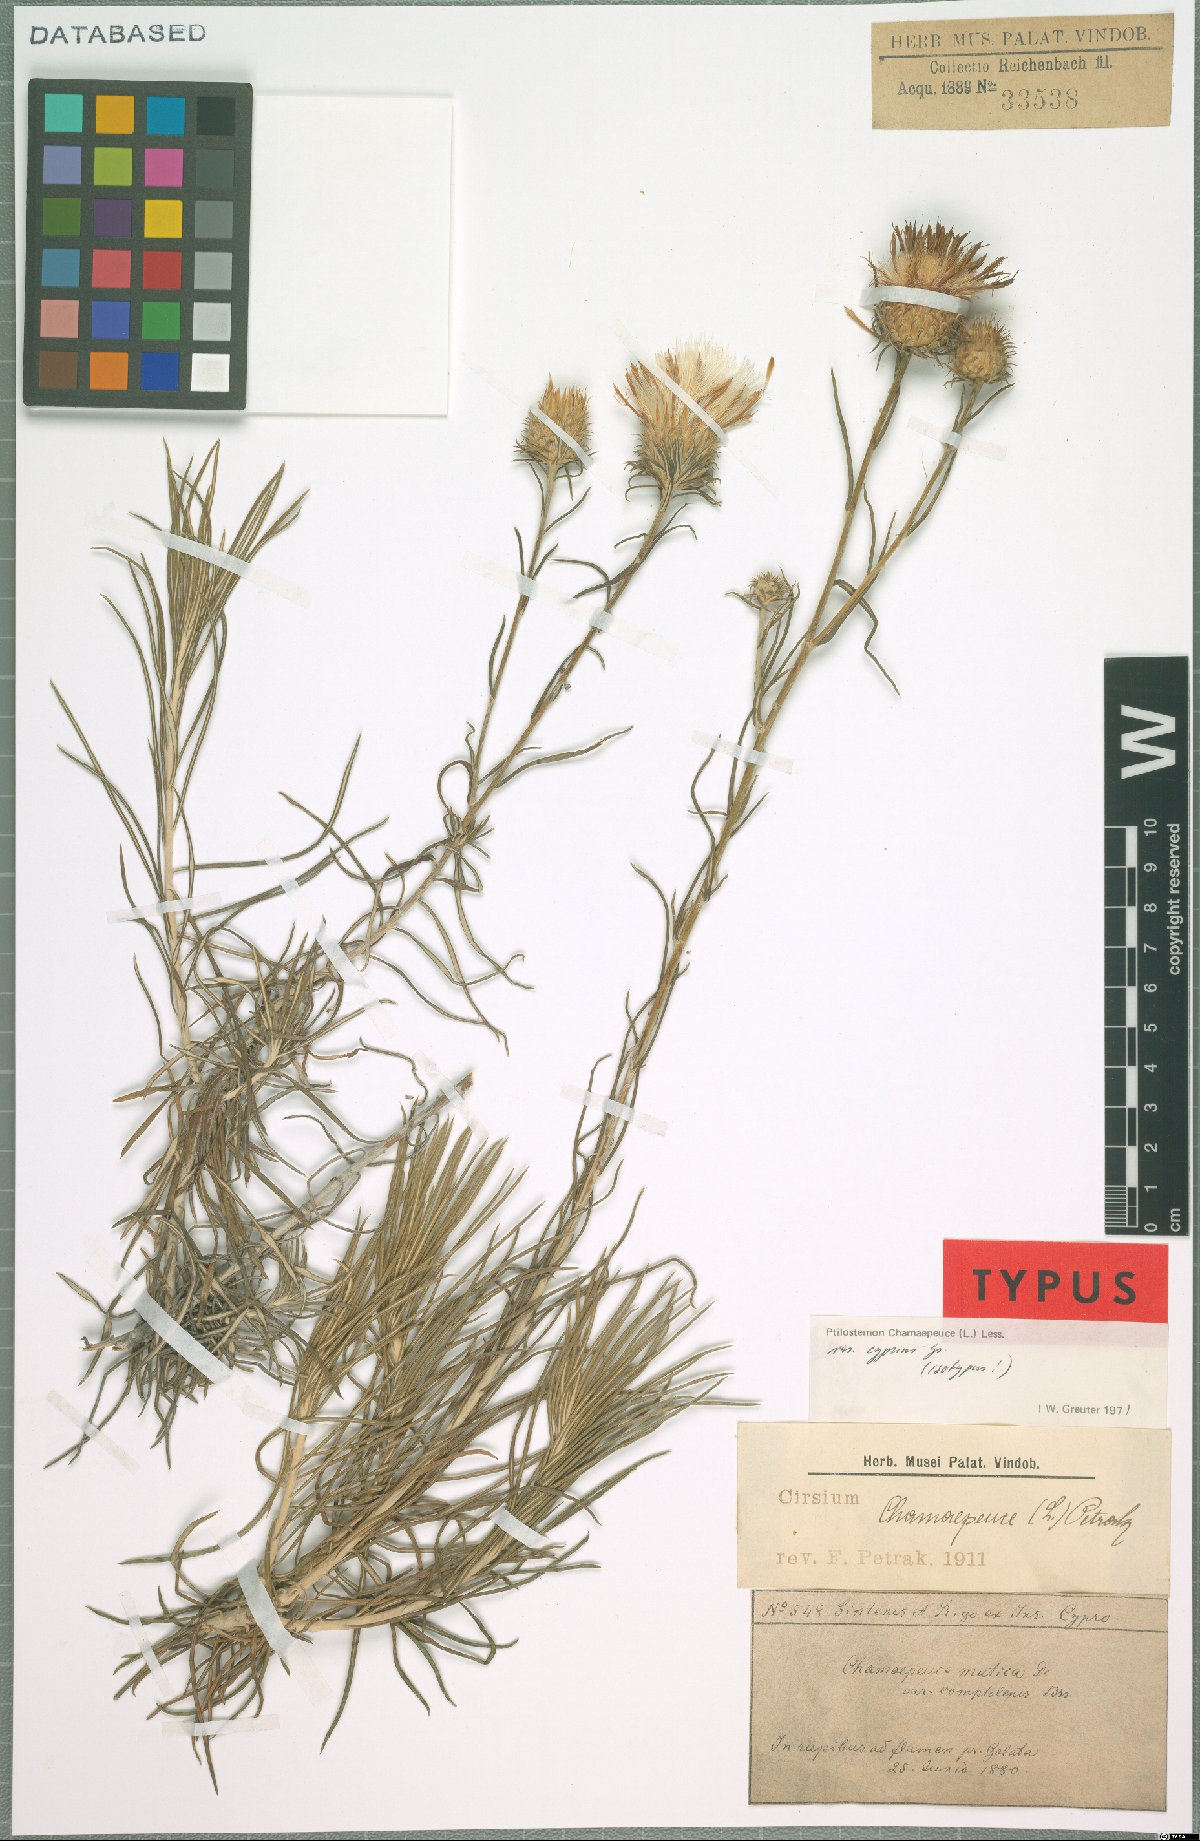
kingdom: Plantae
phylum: Tracheophyta
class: Magnoliopsida
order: Asterales
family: Asteraceae
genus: Ptilostemon
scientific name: Ptilostemon chamaepeuce
